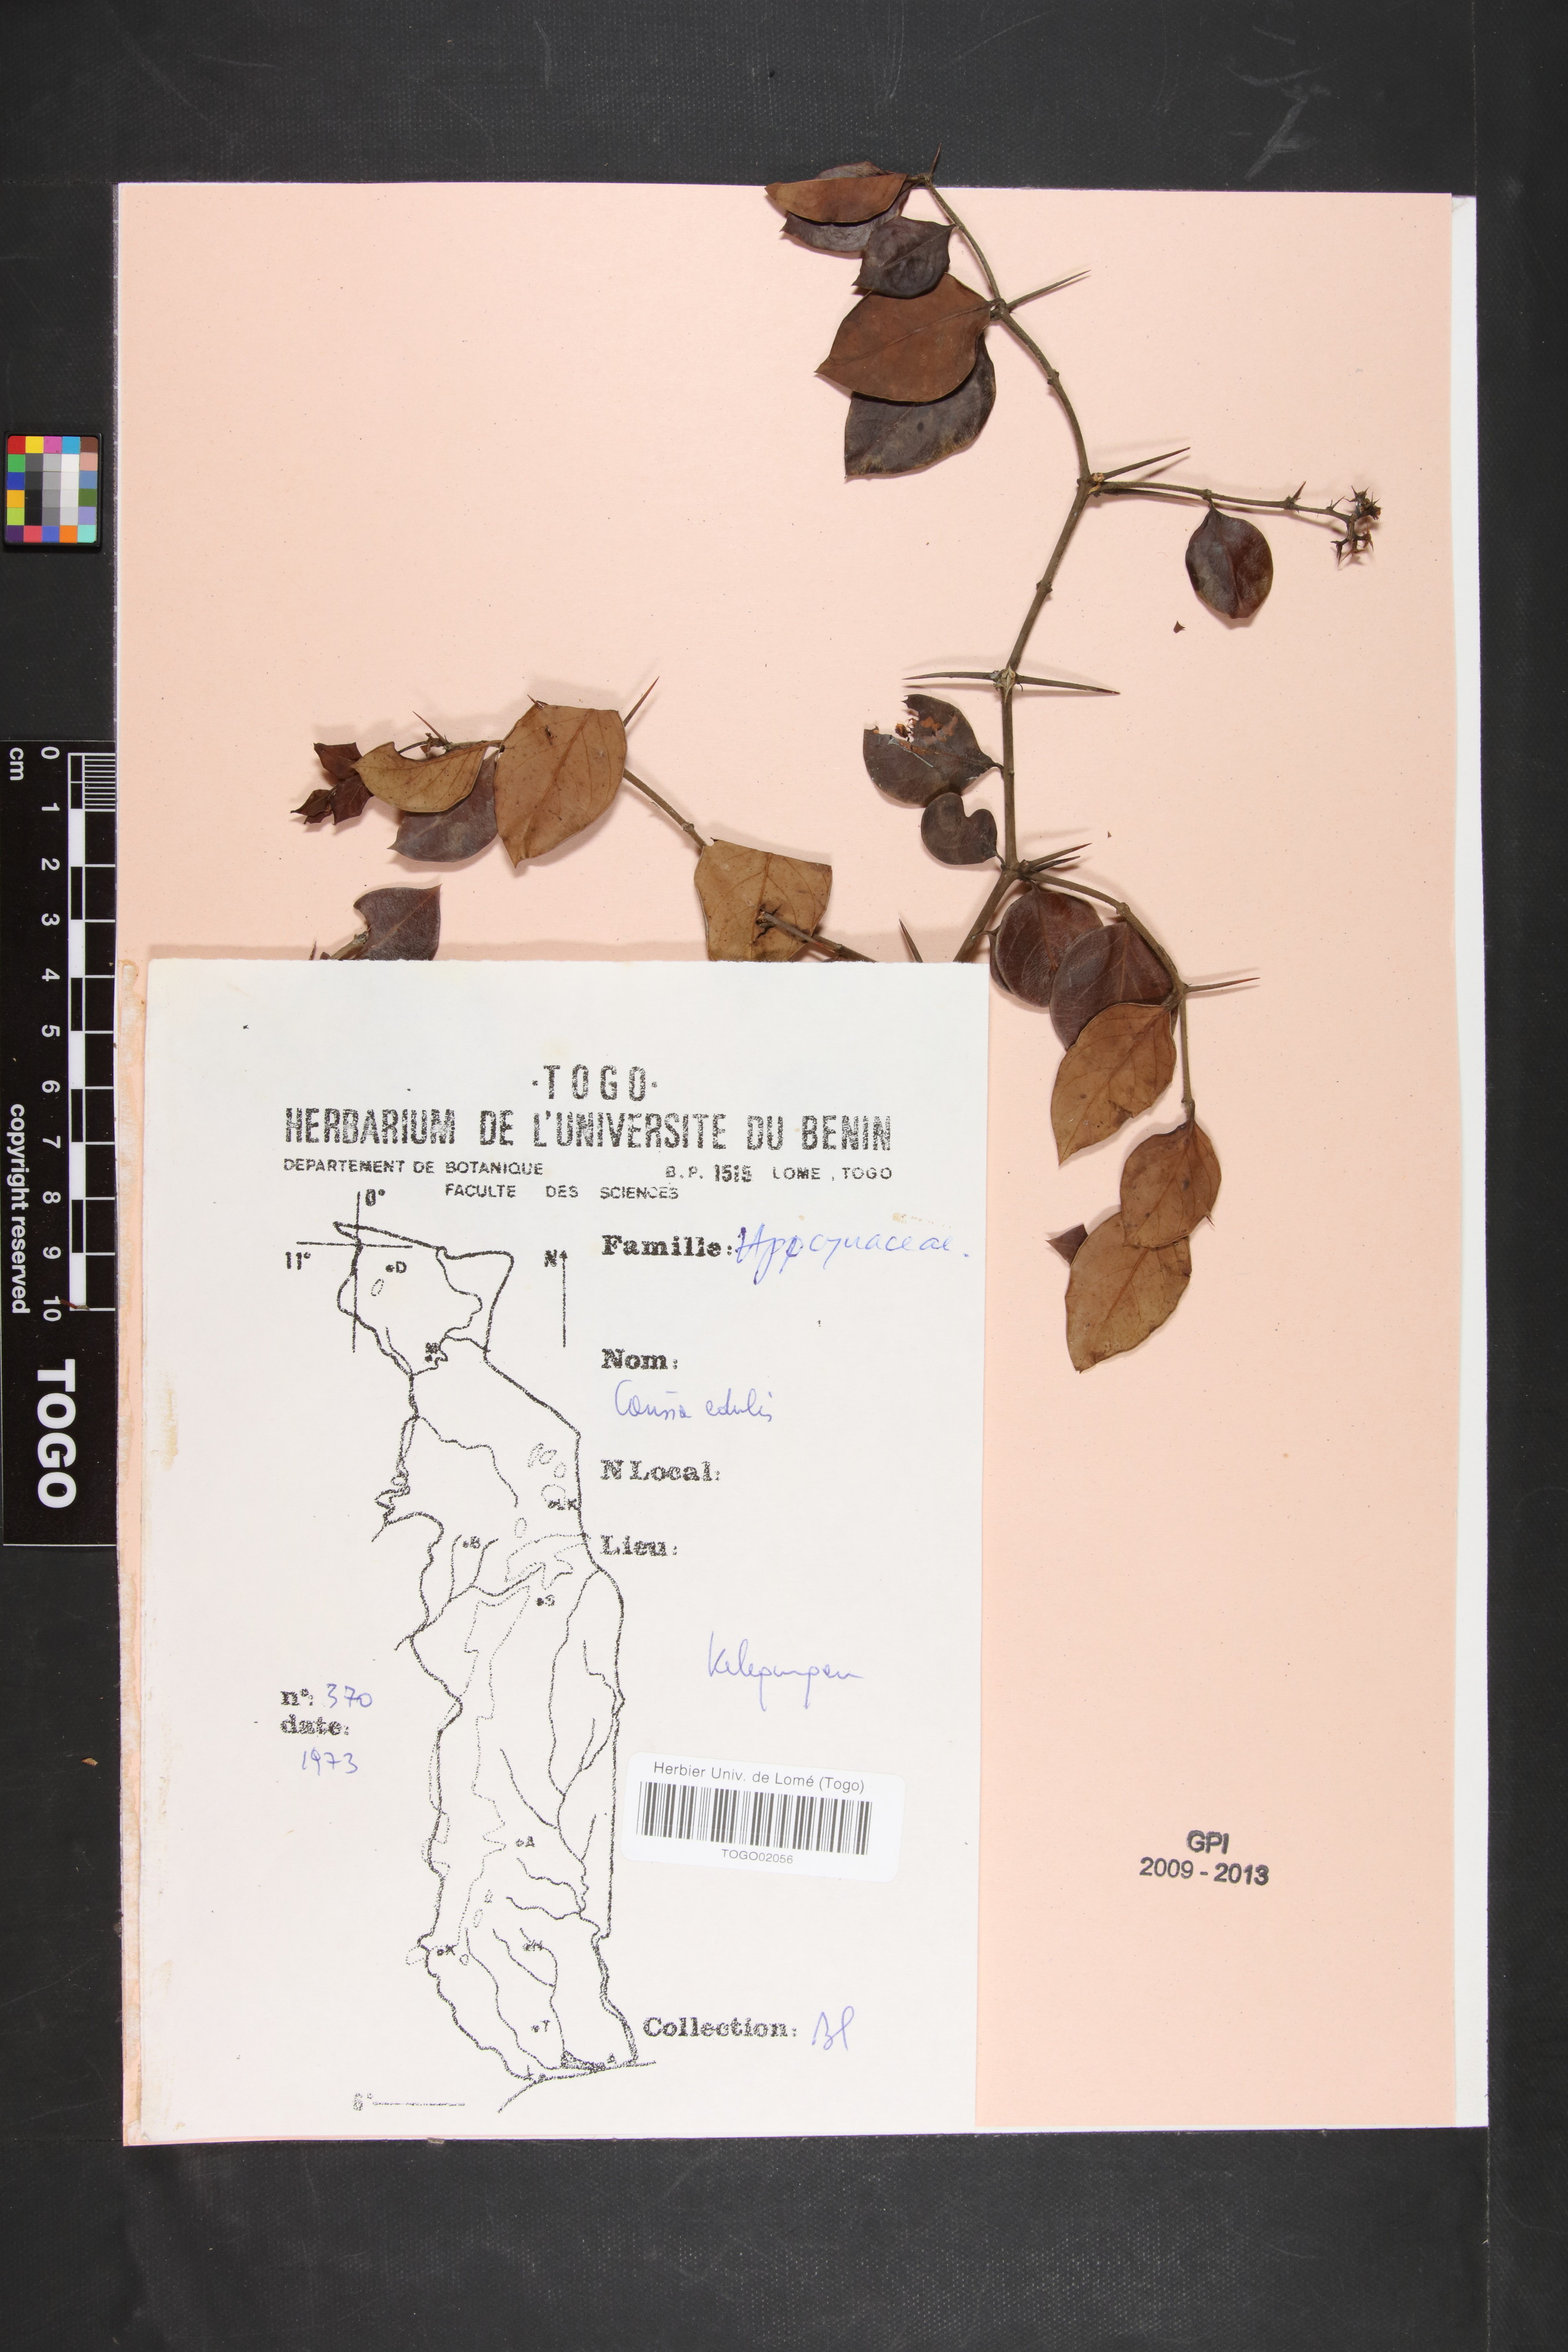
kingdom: Plantae
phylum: Tracheophyta
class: Magnoliopsida
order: Gentianales
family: Apocynaceae
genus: Carissa
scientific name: Carissa spinarum
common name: Egyptian carissa
